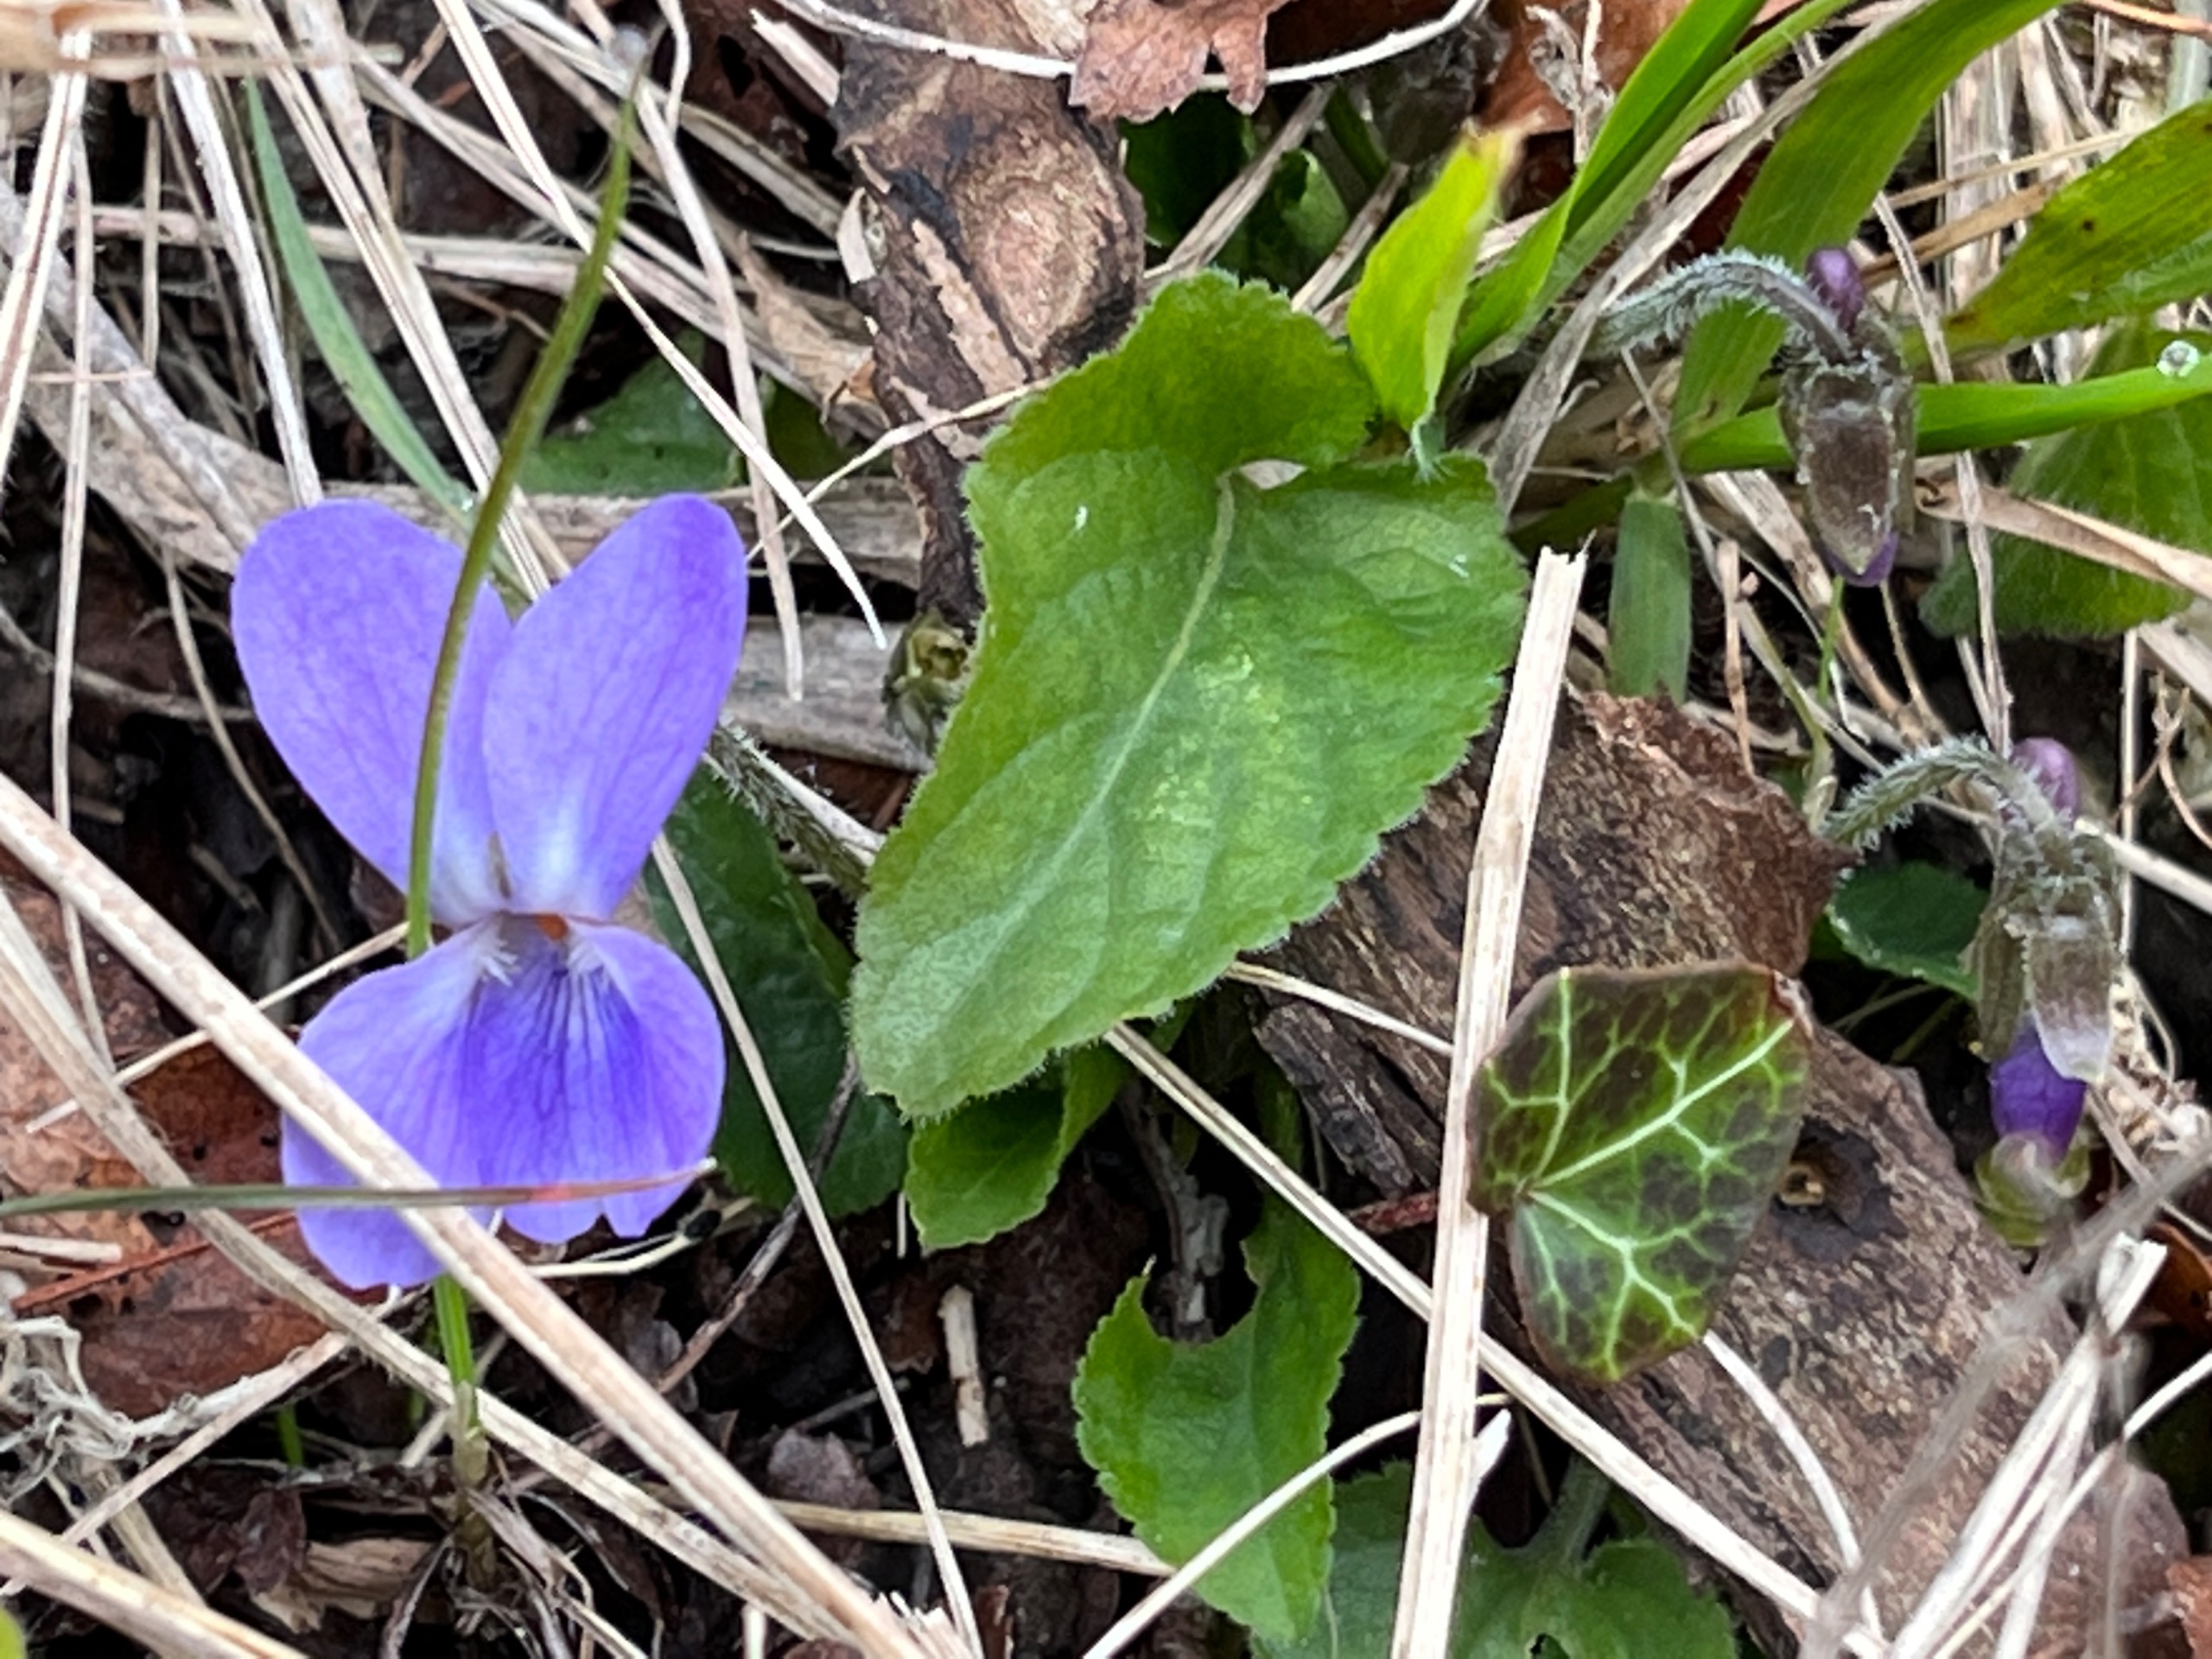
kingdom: Plantae
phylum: Tracheophyta
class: Magnoliopsida
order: Malpighiales
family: Violaceae
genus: Viola
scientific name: Viola hirta
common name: Håret viol
